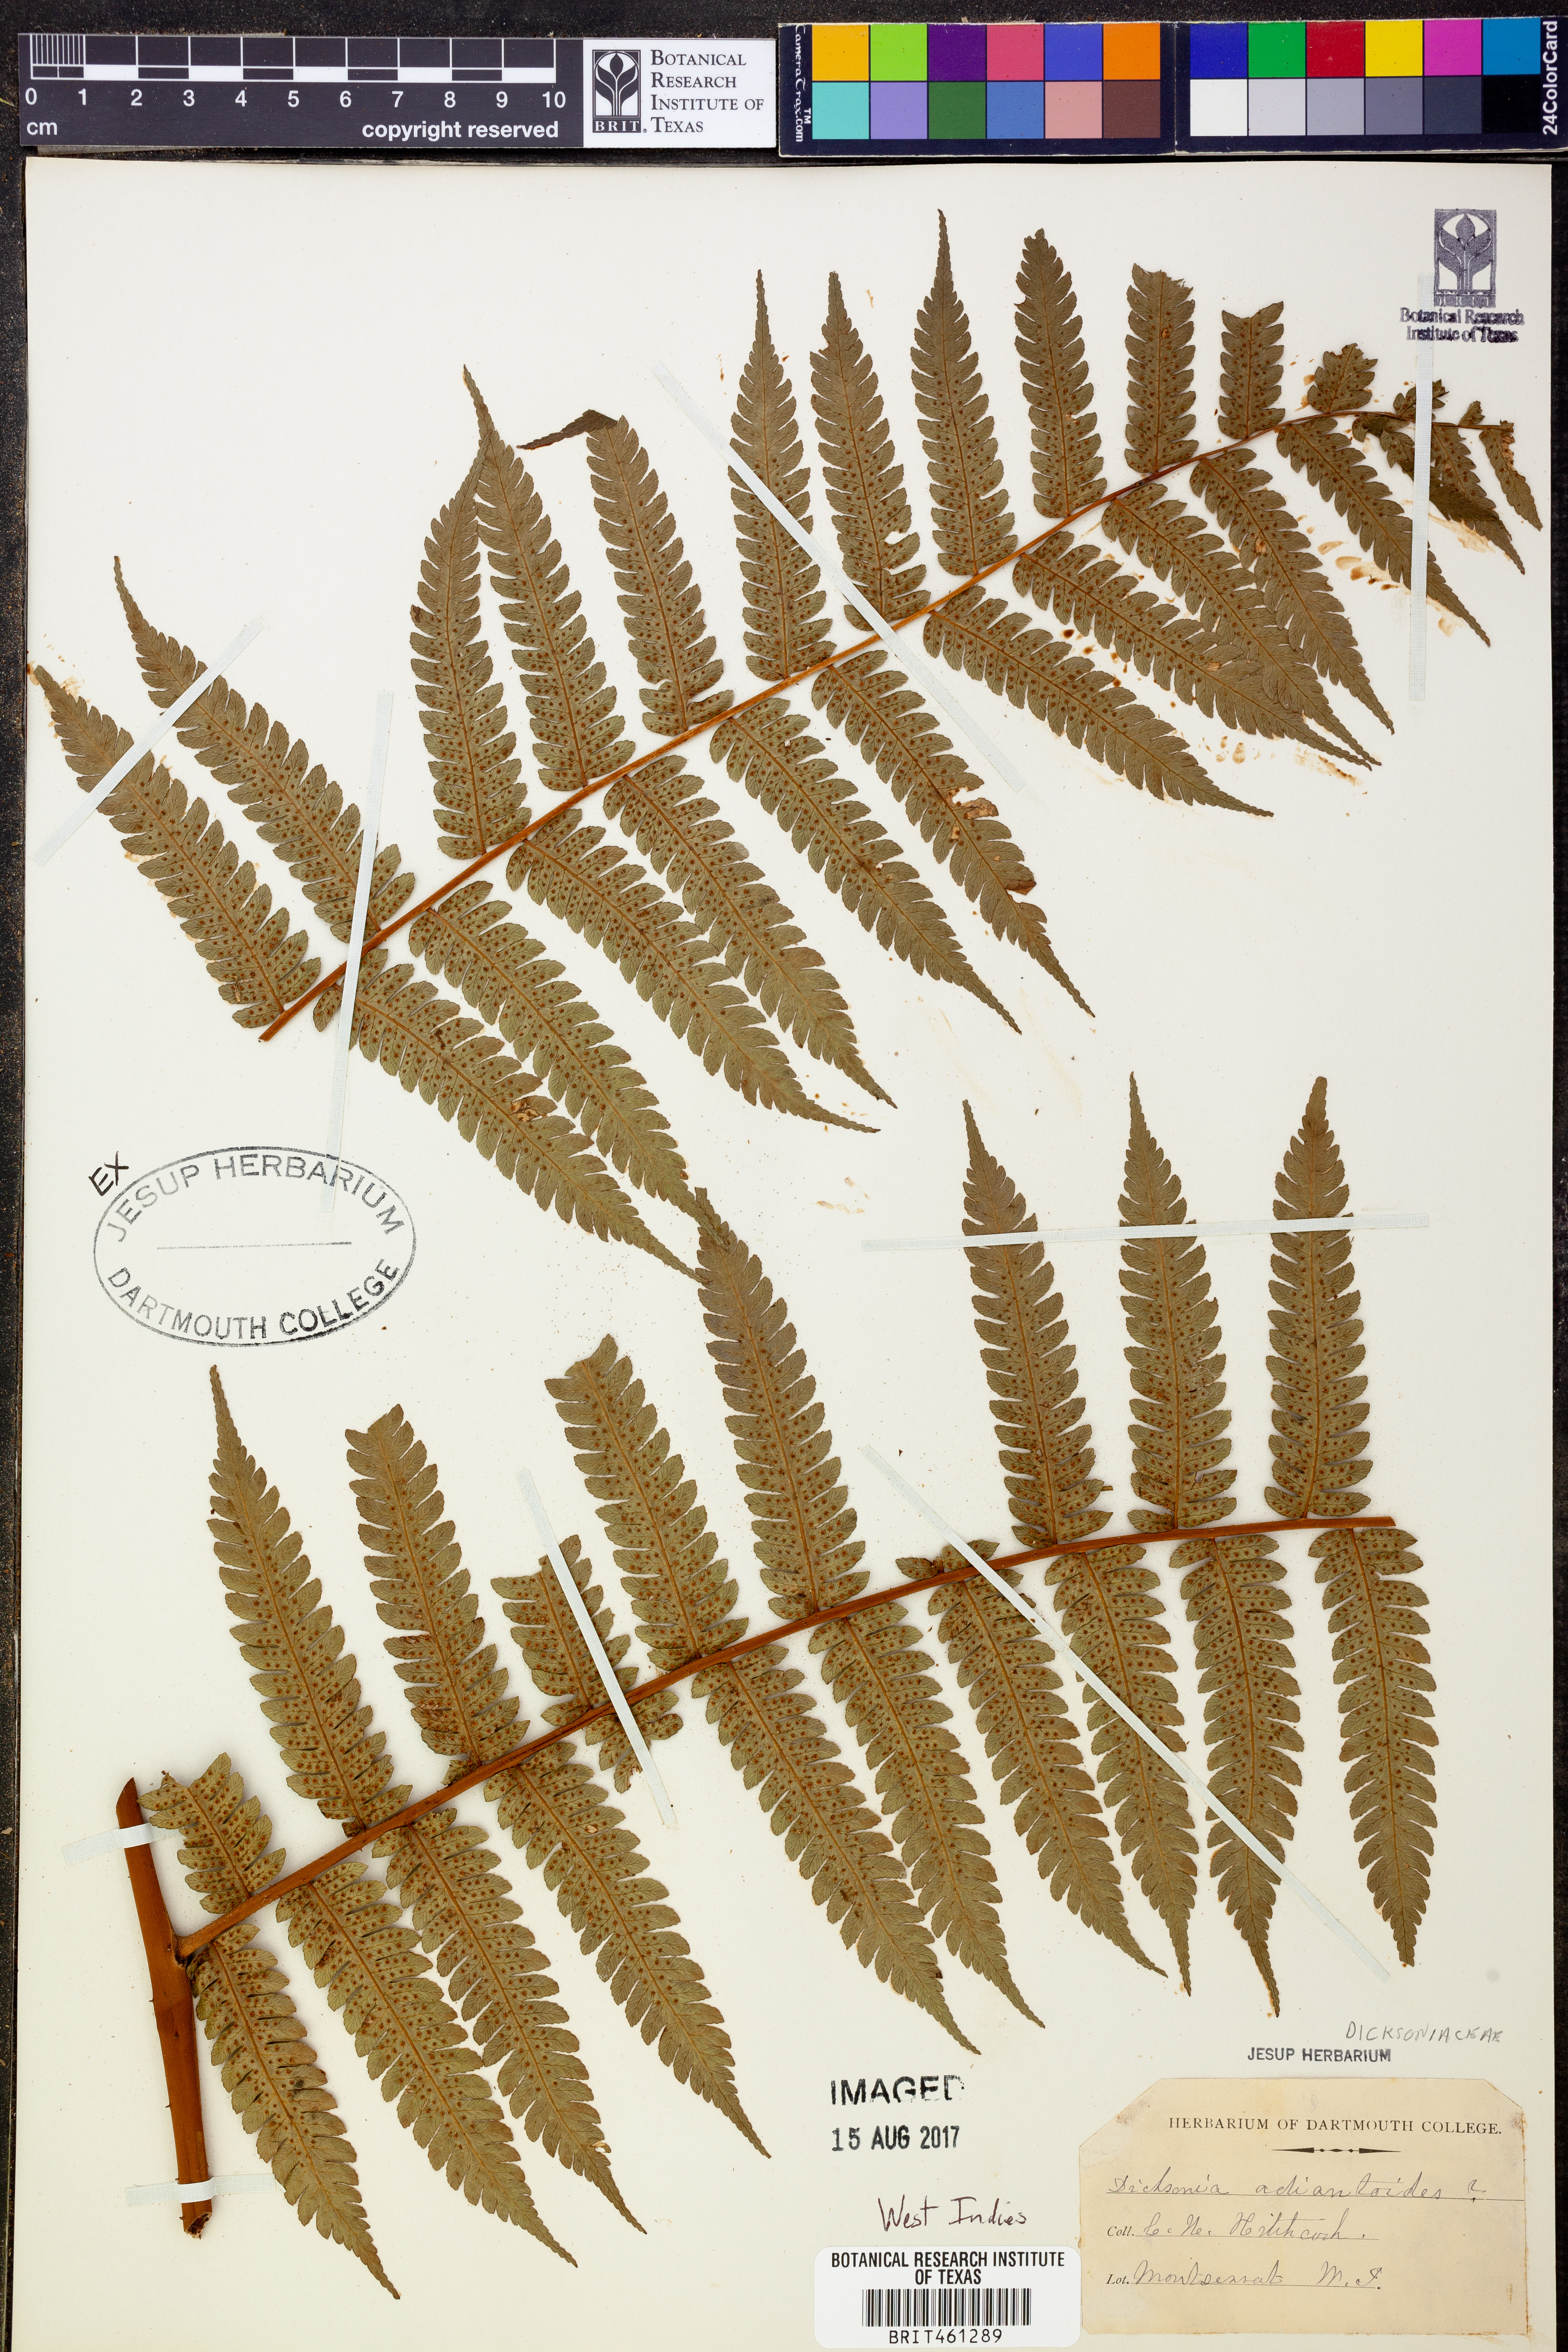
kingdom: Plantae
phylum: Tracheophyta
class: Polypodiopsida
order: Cyatheales
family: Dicksoniaceae
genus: Dicksonia
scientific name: Dicksonia adiantoides
